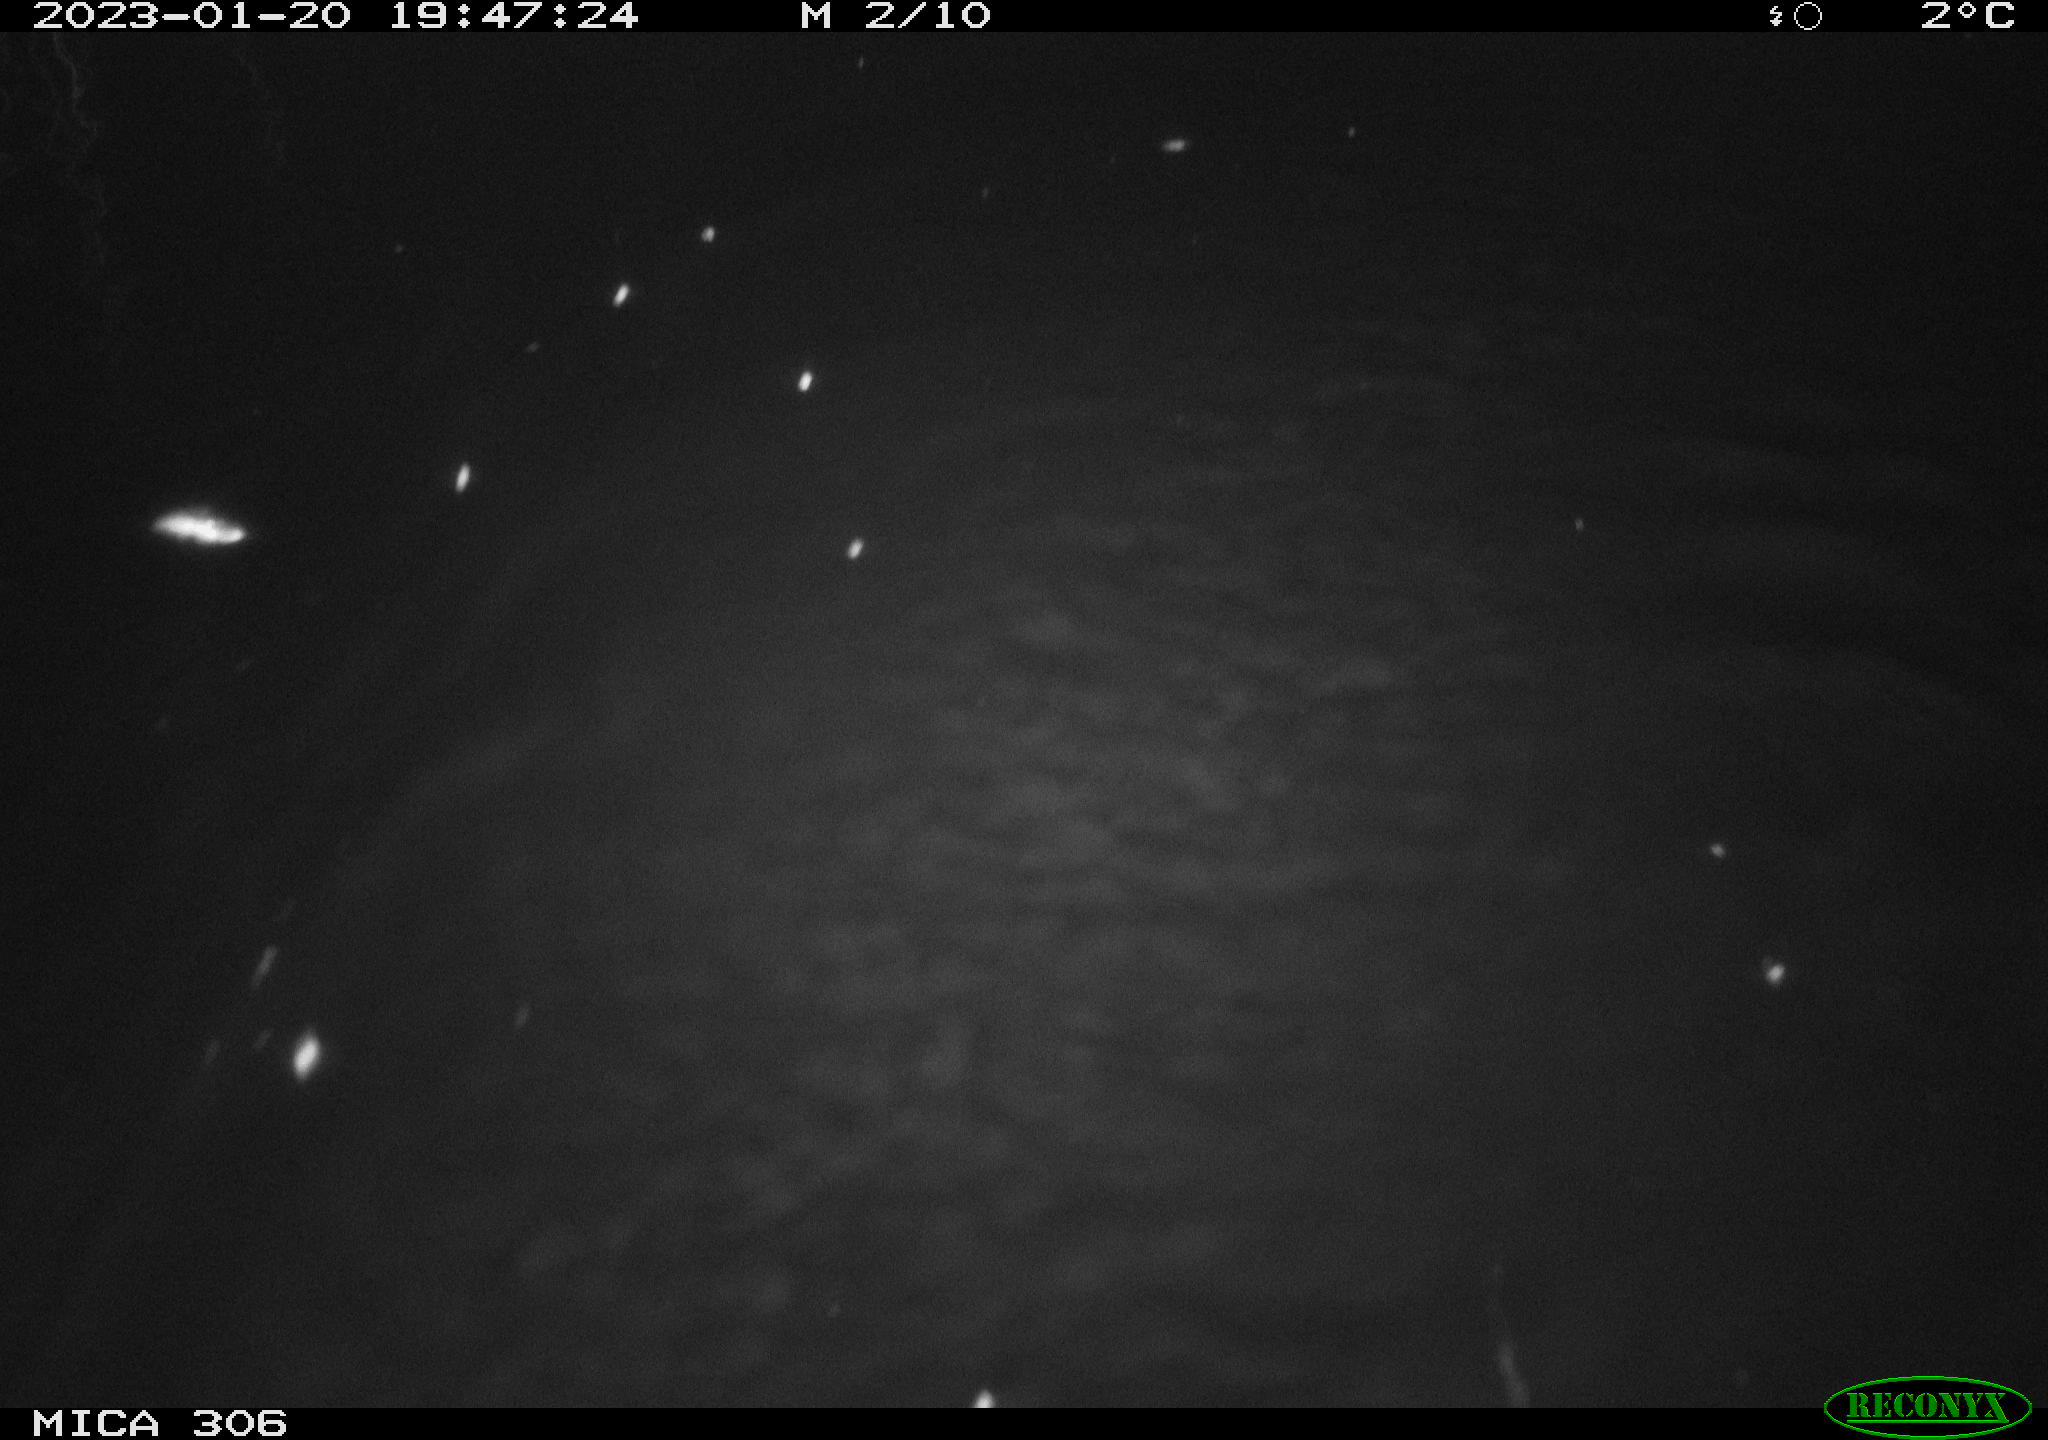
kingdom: Animalia
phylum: Chordata
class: Mammalia
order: Rodentia
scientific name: Rodentia
